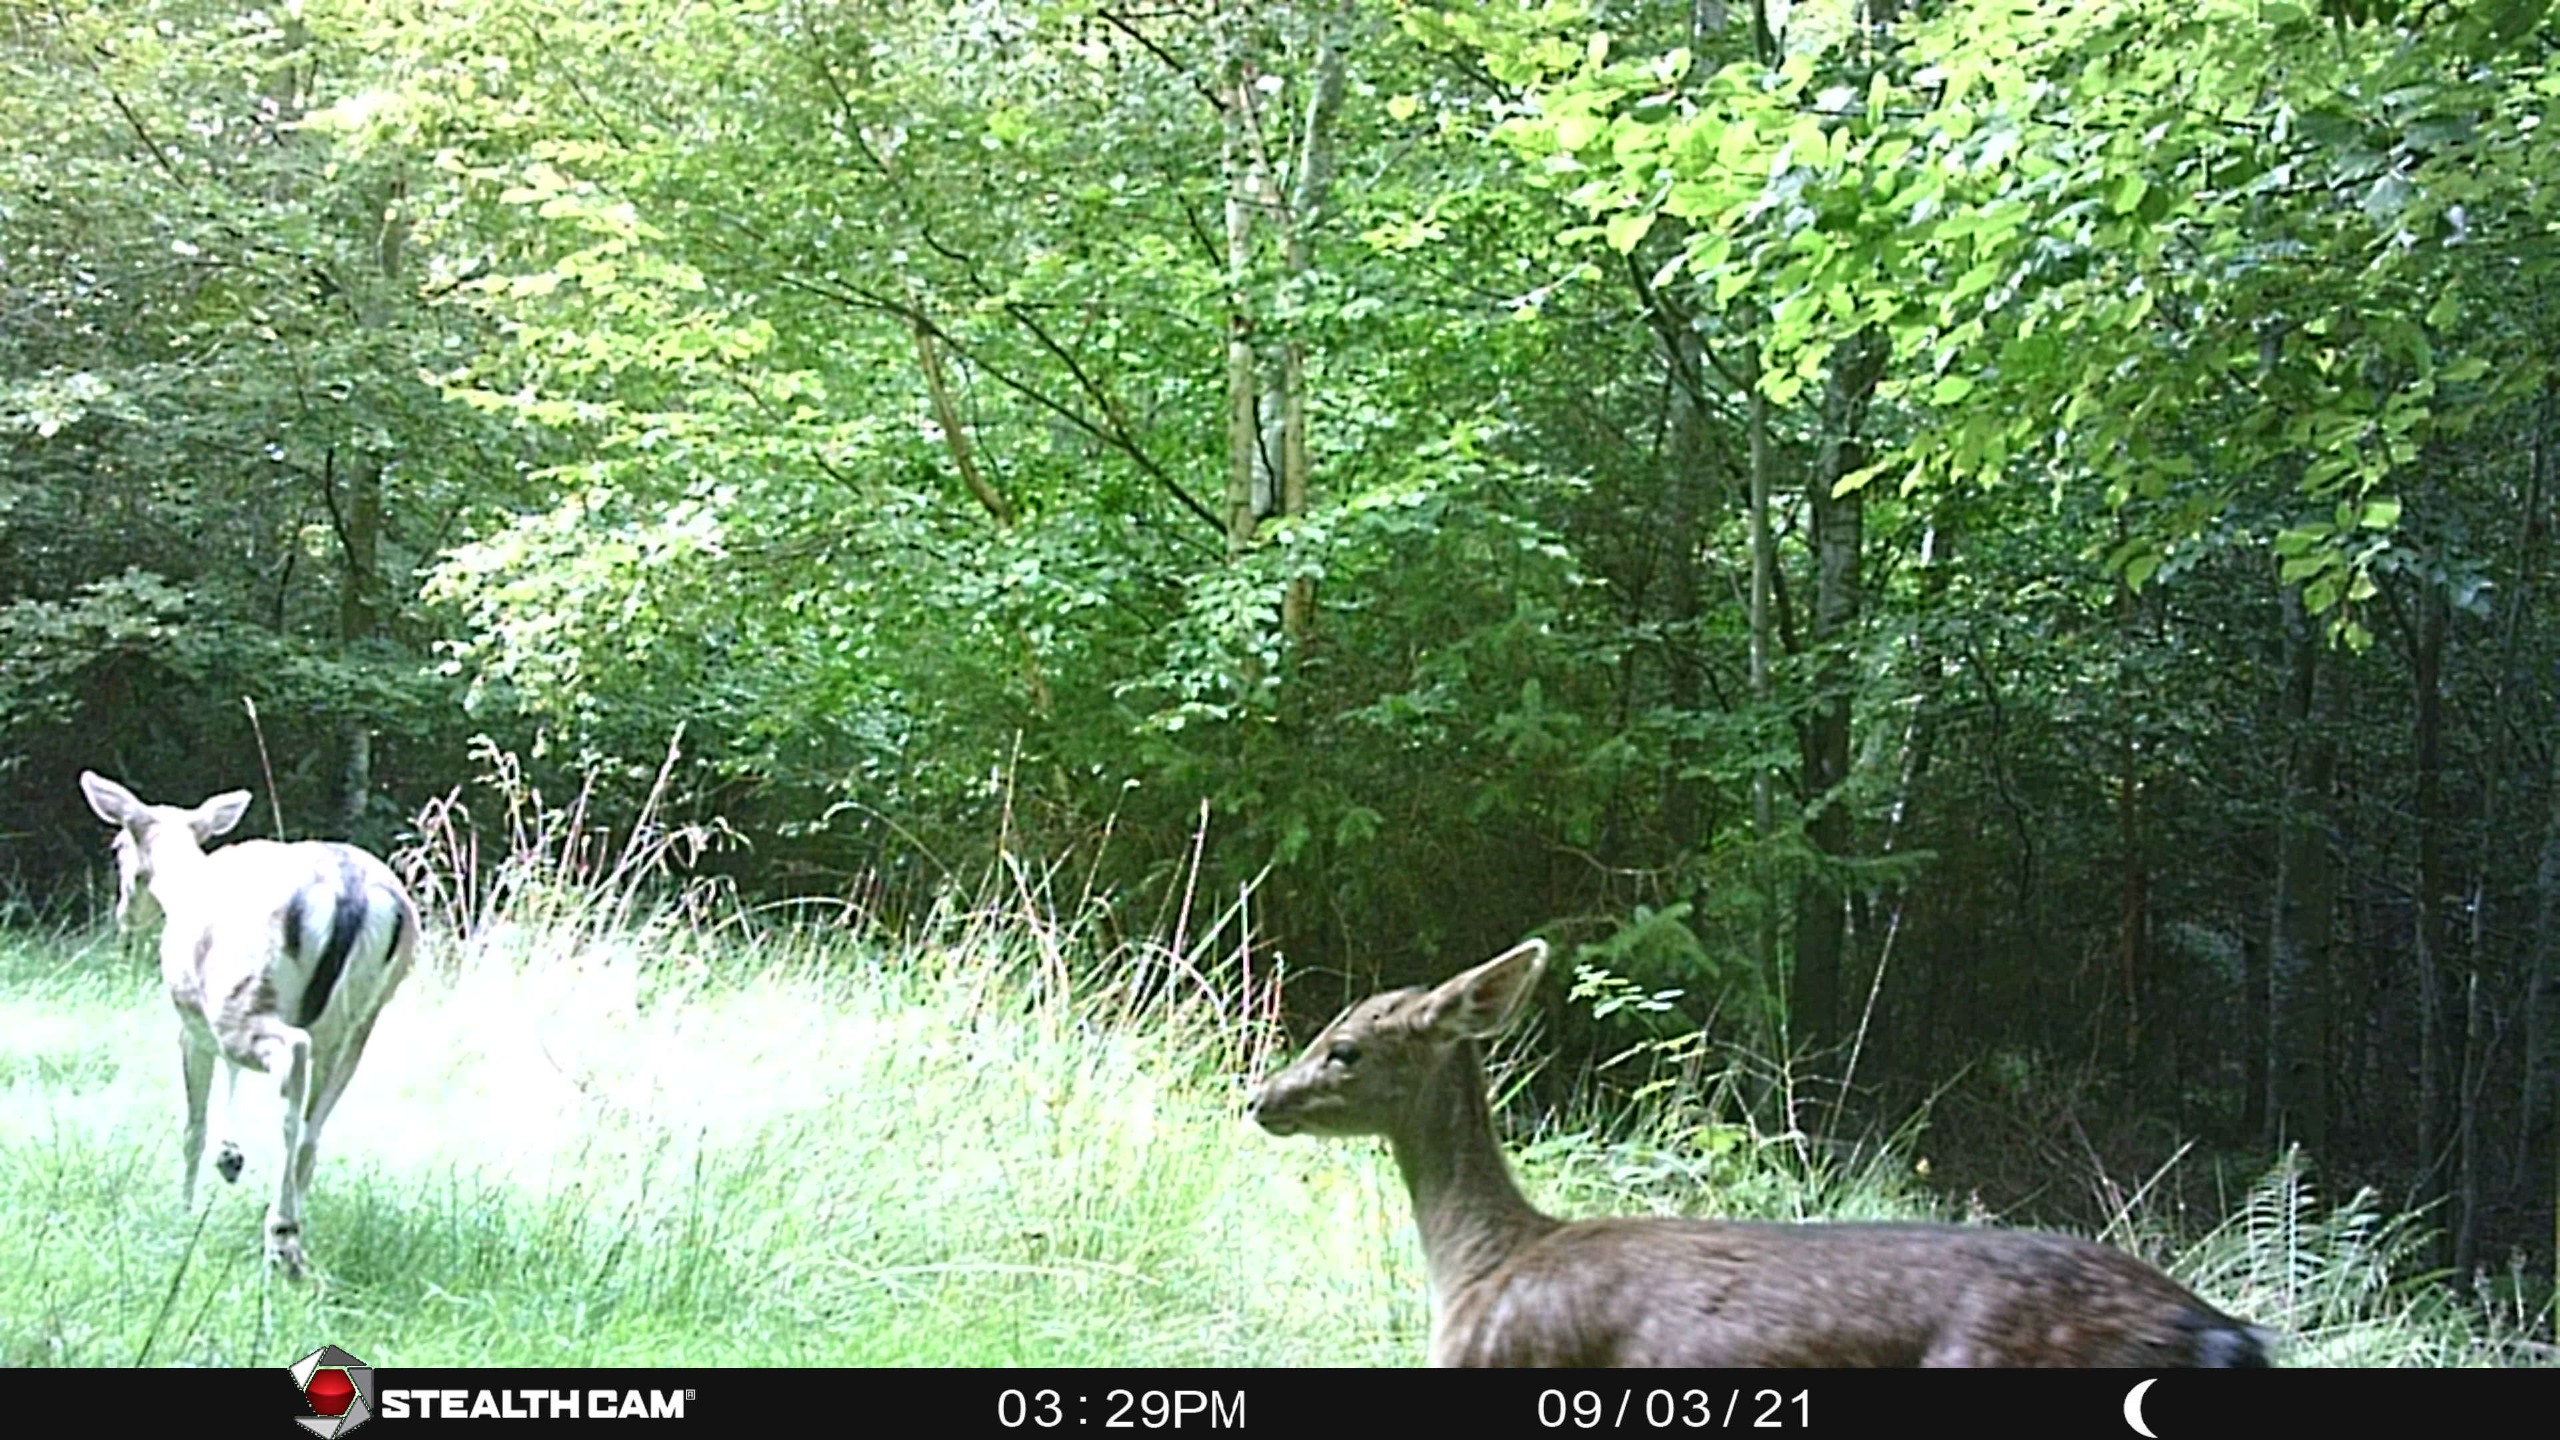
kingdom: Animalia
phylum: Chordata
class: Mammalia
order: Artiodactyla
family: Cervidae
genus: Dama
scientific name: Dama dama
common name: Dådyr
